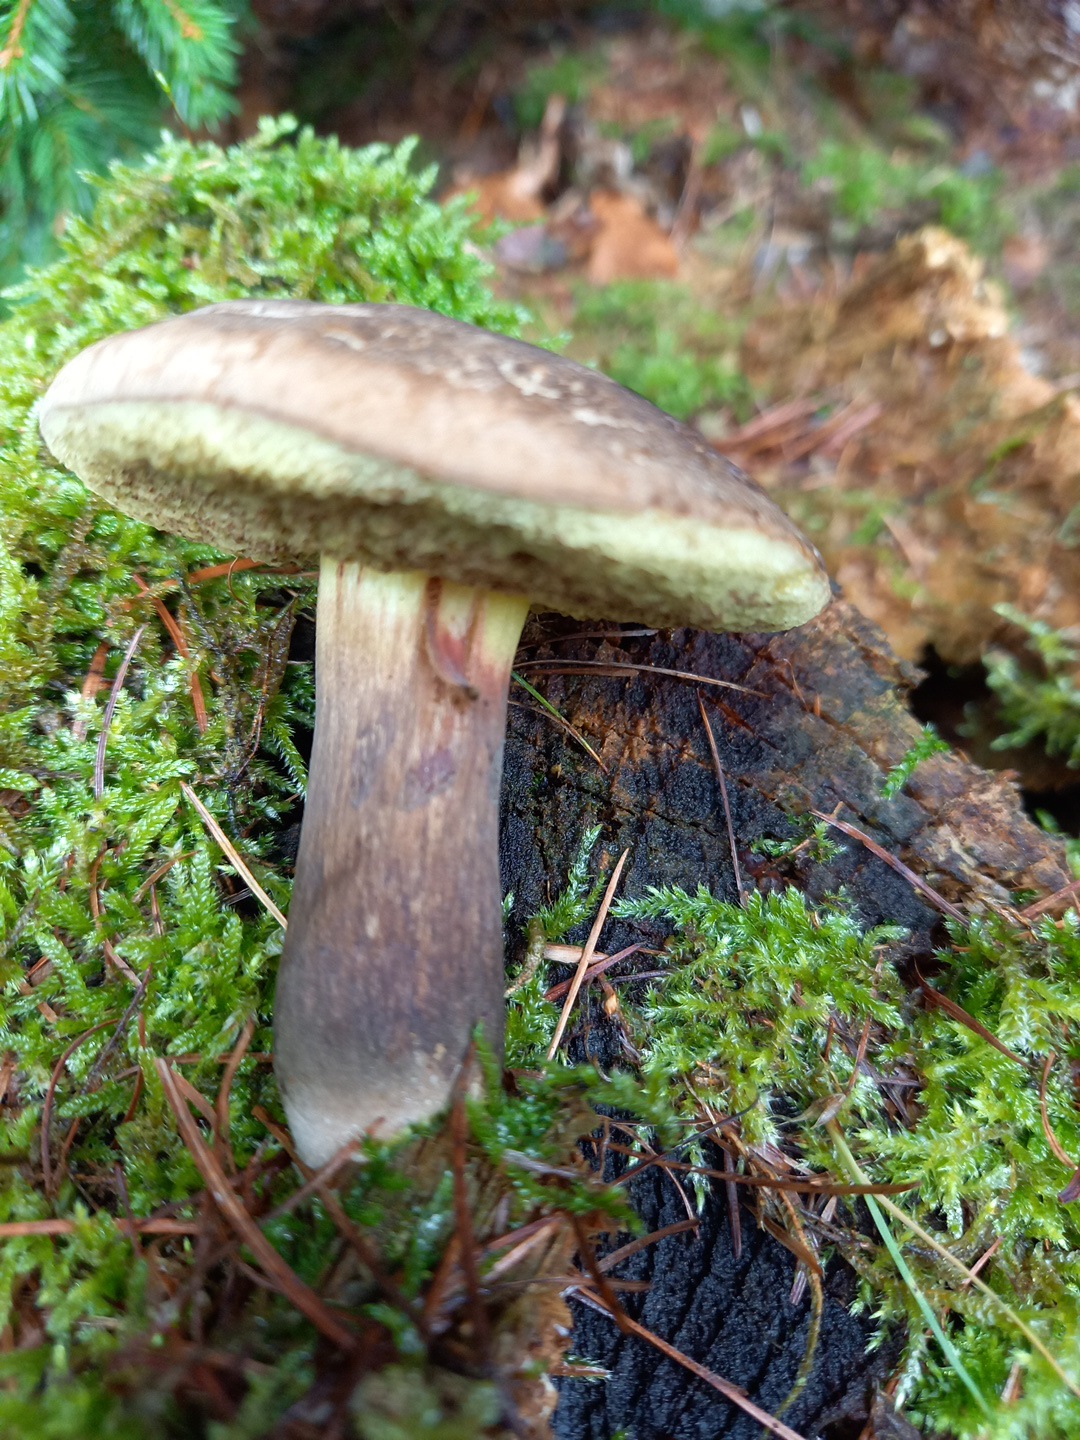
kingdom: Fungi
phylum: Basidiomycota
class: Agaricomycetes
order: Boletales
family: Boletaceae
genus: Xerocomellus
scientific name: Xerocomellus porosporus
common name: hvidsprukken rørhat
